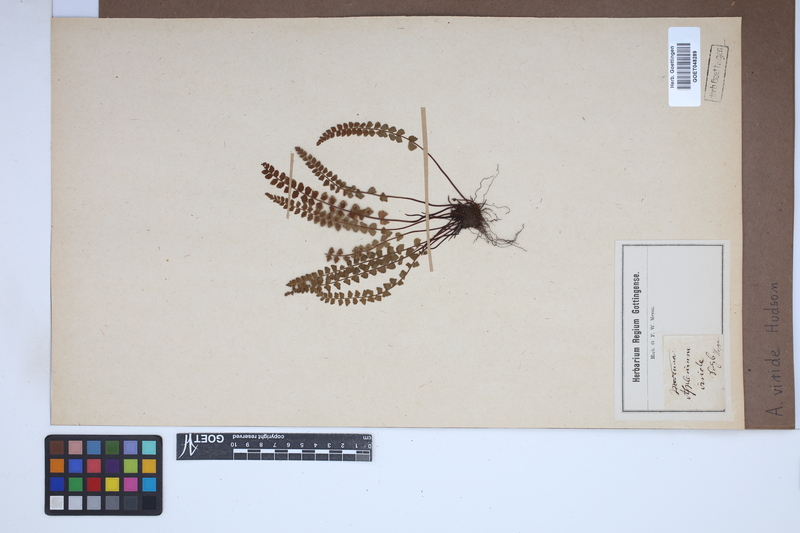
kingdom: Plantae
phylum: Tracheophyta
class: Polypodiopsida
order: Polypodiales
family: Aspleniaceae
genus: Asplenium
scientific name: Asplenium viride
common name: Green spleenwort
